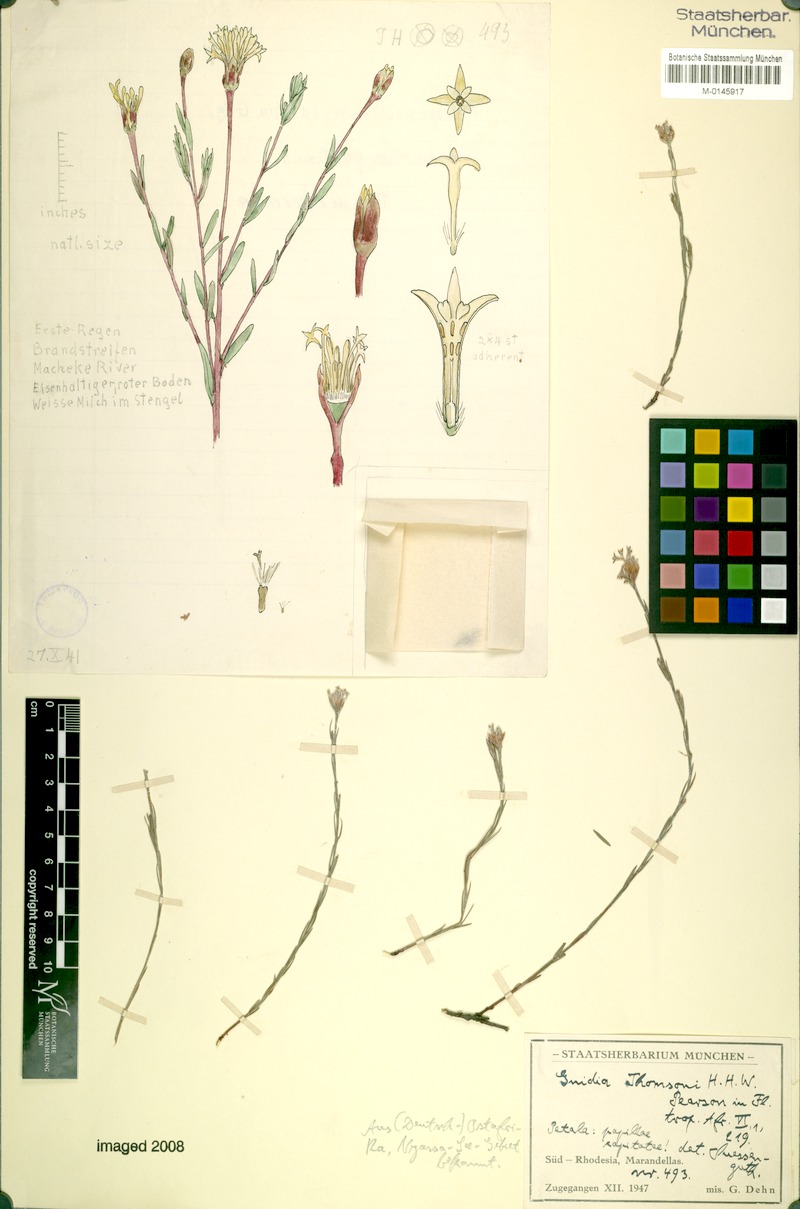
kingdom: Plantae
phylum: Tracheophyta
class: Magnoliopsida
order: Malvales
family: Thymelaeaceae
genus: Gnidia
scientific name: Gnidia microcephala
